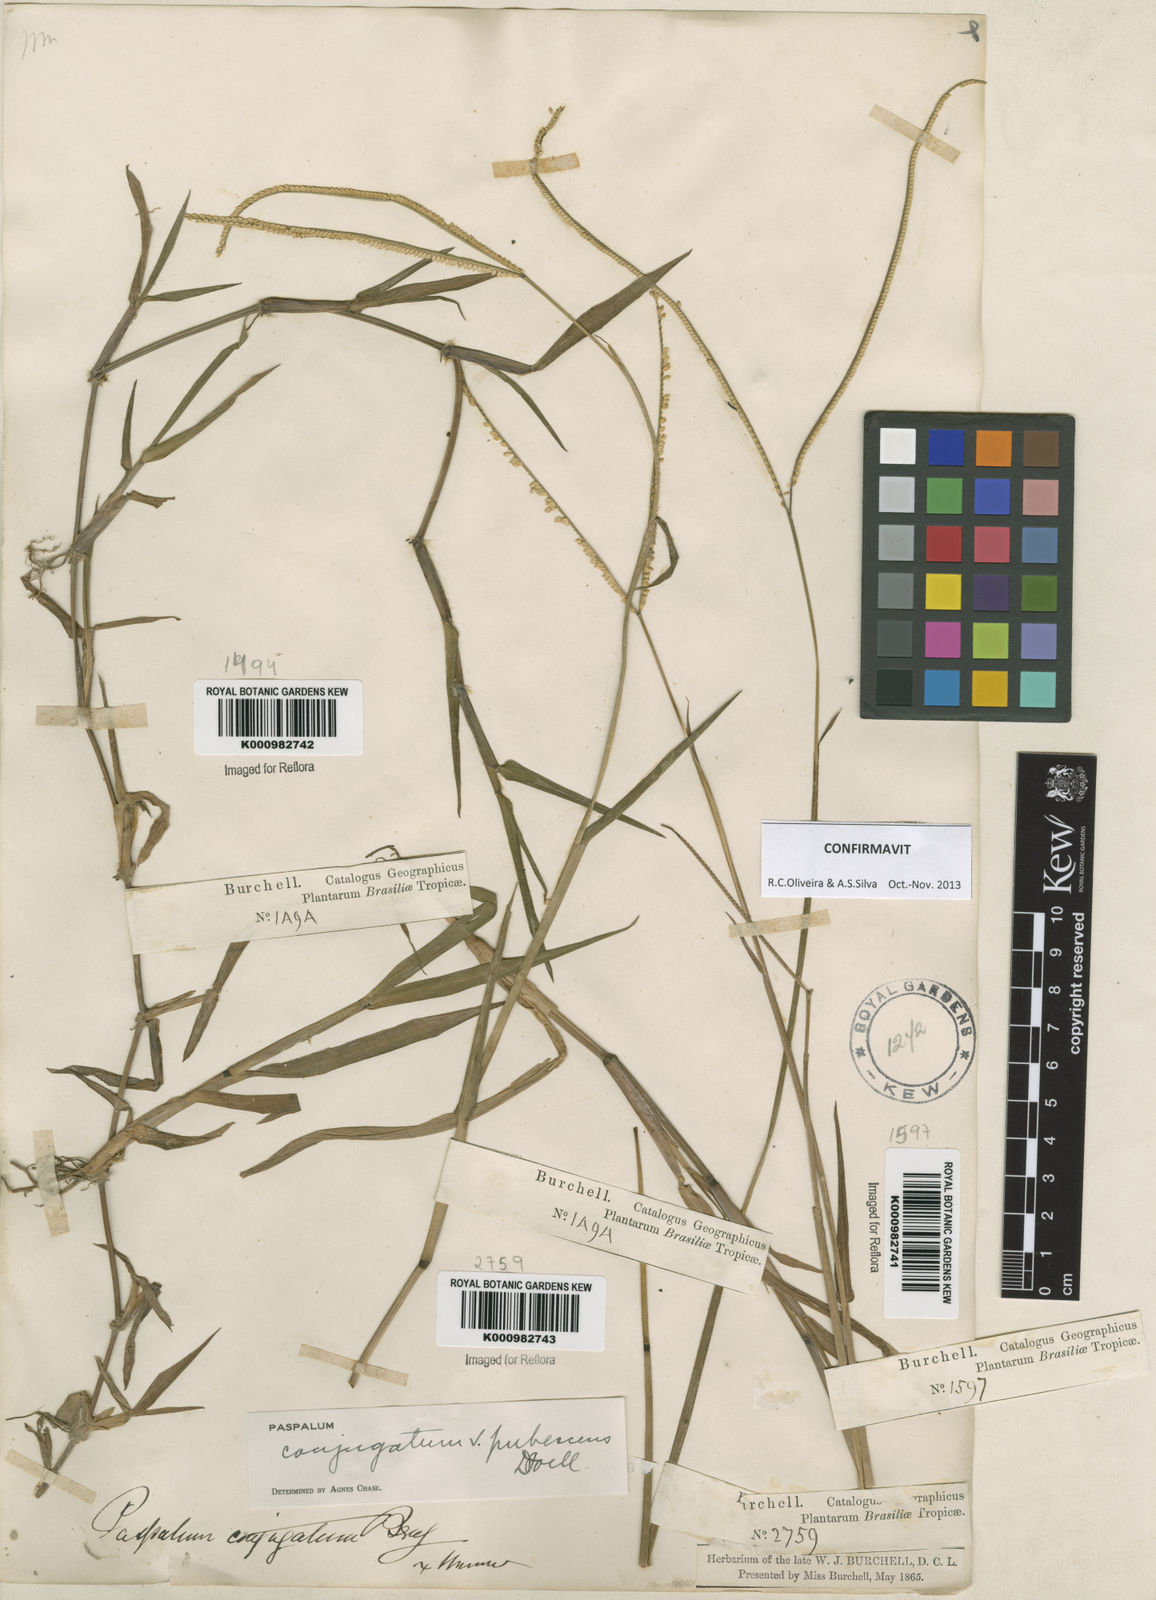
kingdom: Plantae
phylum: Tracheophyta
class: Liliopsida
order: Poales
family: Poaceae
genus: Paspalum
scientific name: Paspalum conjugatum
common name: Hilograss
